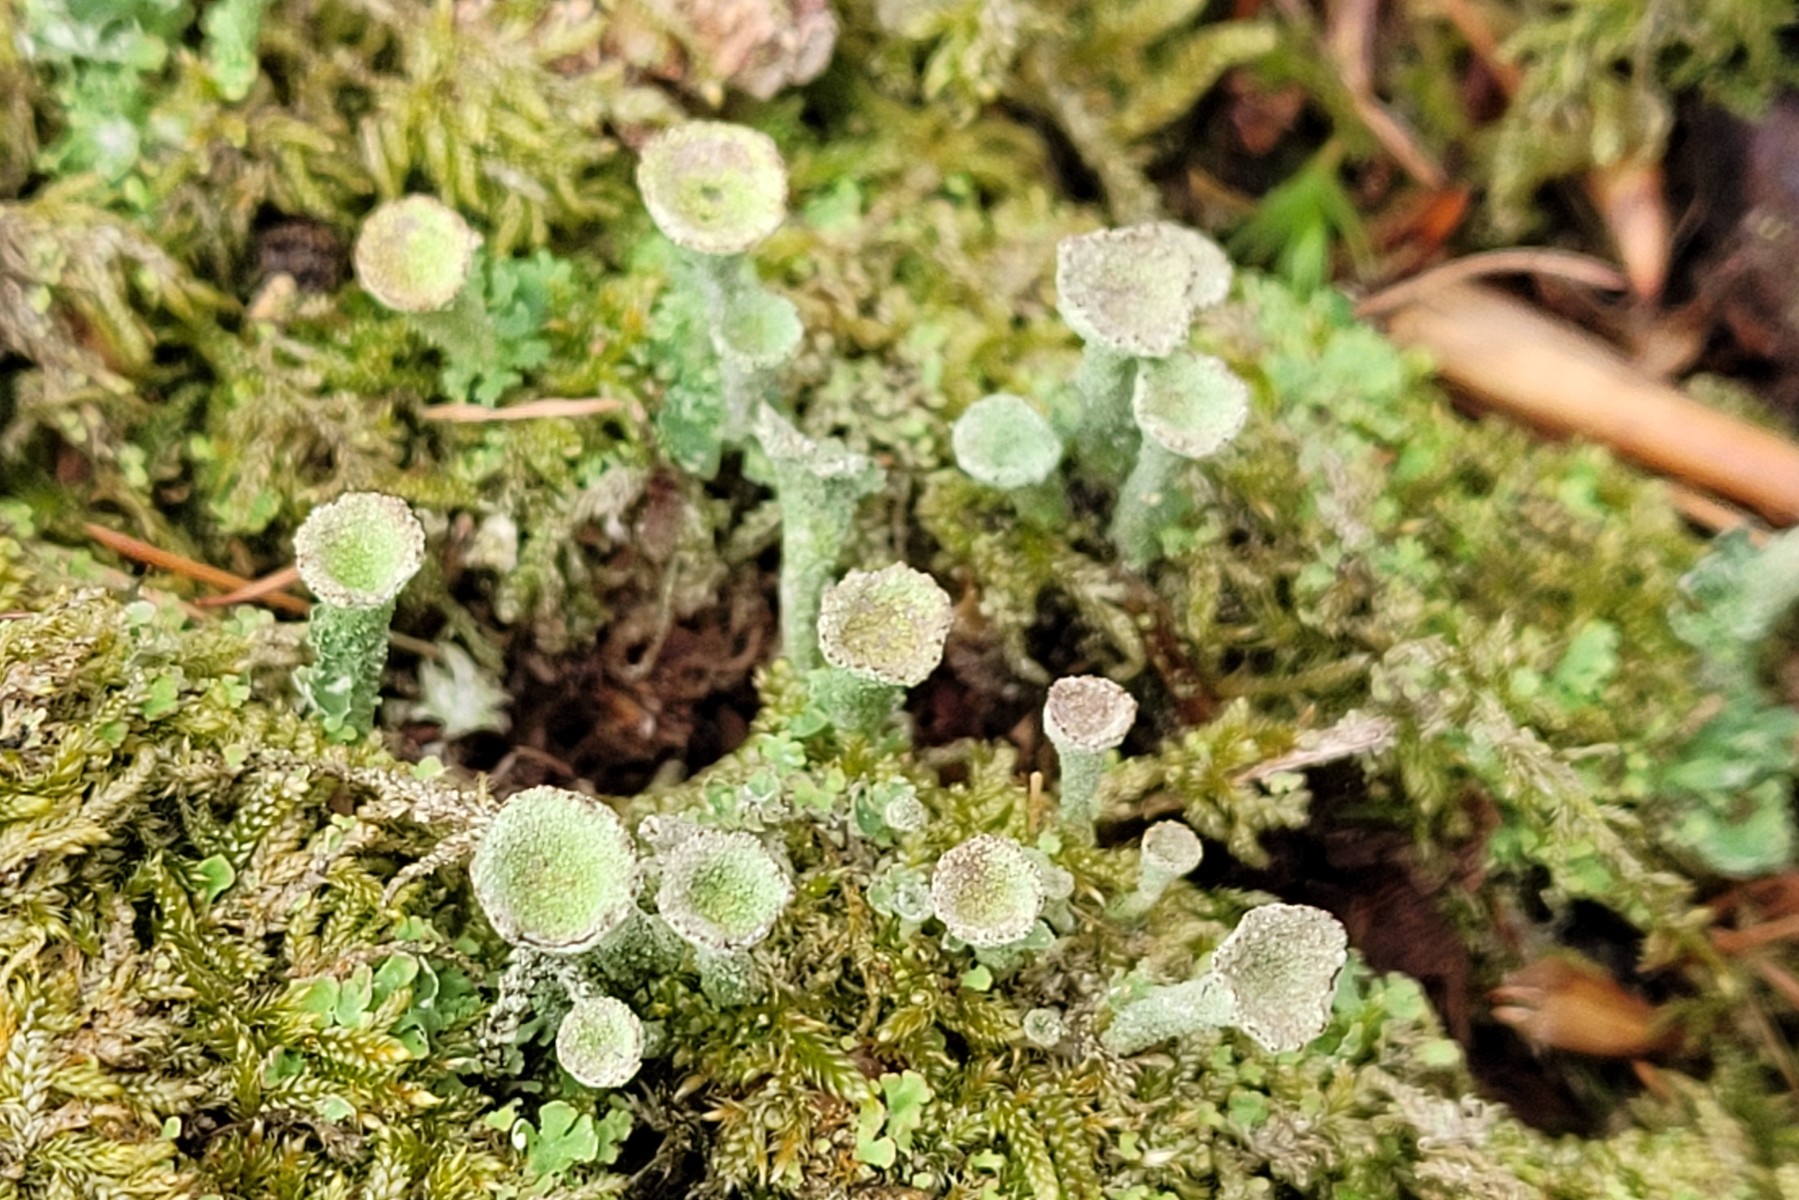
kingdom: Fungi
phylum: Ascomycota
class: Lecanoromycetes
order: Lecanorales
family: Cladoniaceae
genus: Cladonia
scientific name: Cladonia
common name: brungrøn bægerlav
